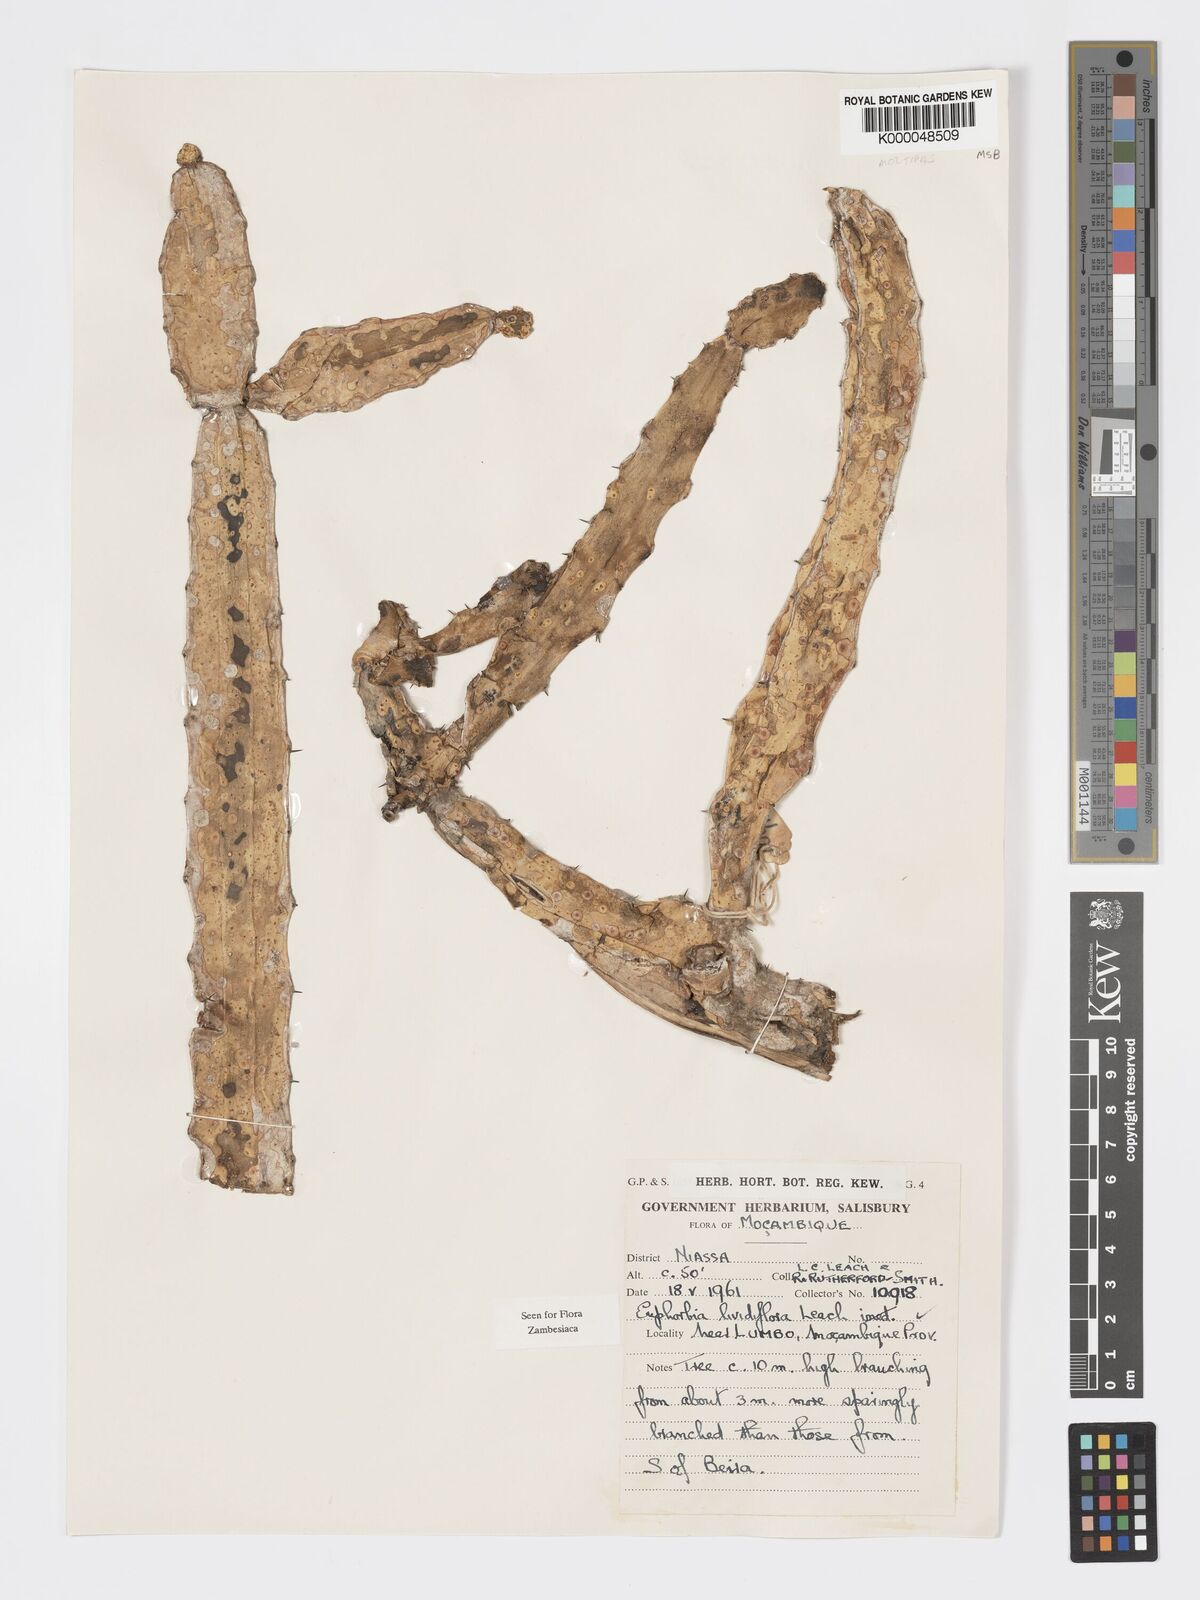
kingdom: Plantae
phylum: Tracheophyta
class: Magnoliopsida
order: Malpighiales
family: Euphorbiaceae
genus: Euphorbia
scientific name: Euphorbia lividiflora
